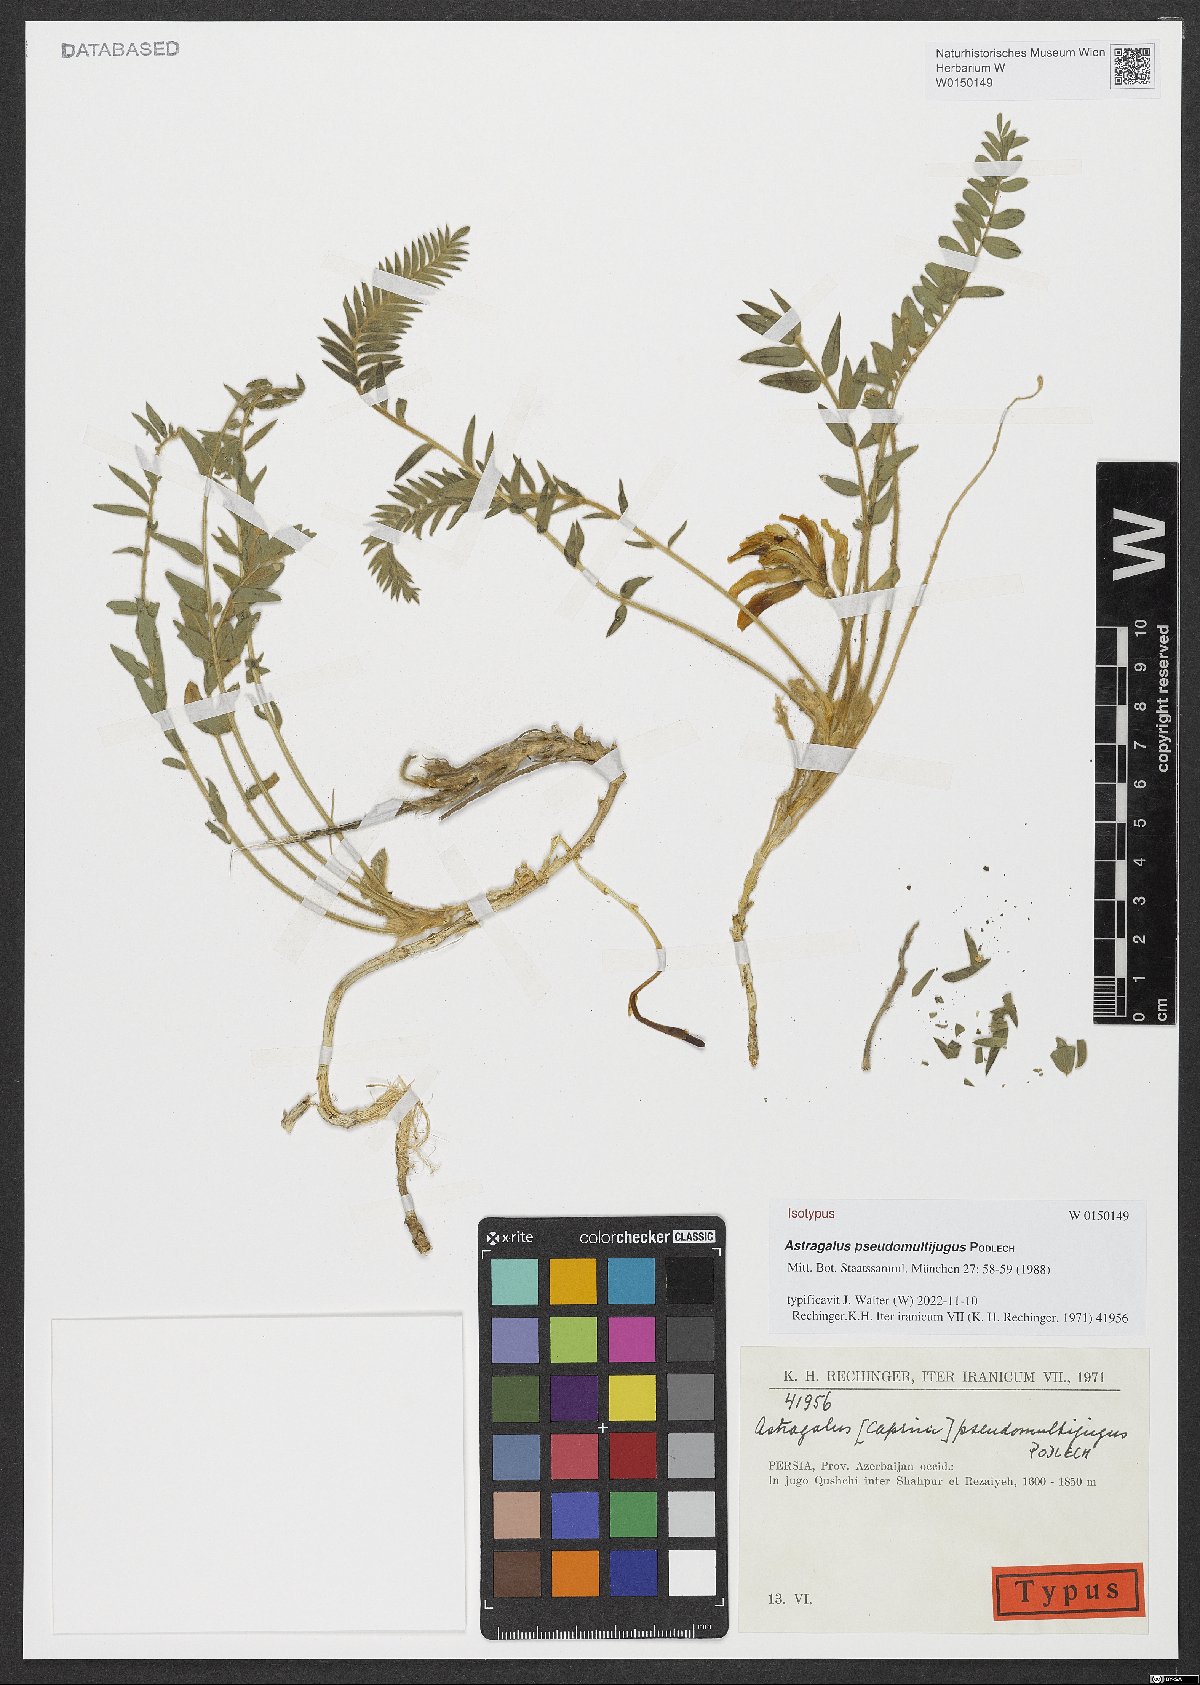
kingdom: Plantae
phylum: Tracheophyta
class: Magnoliopsida
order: Fabales
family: Fabaceae
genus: Astragalus
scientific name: Astragalus pseudomultijugus
